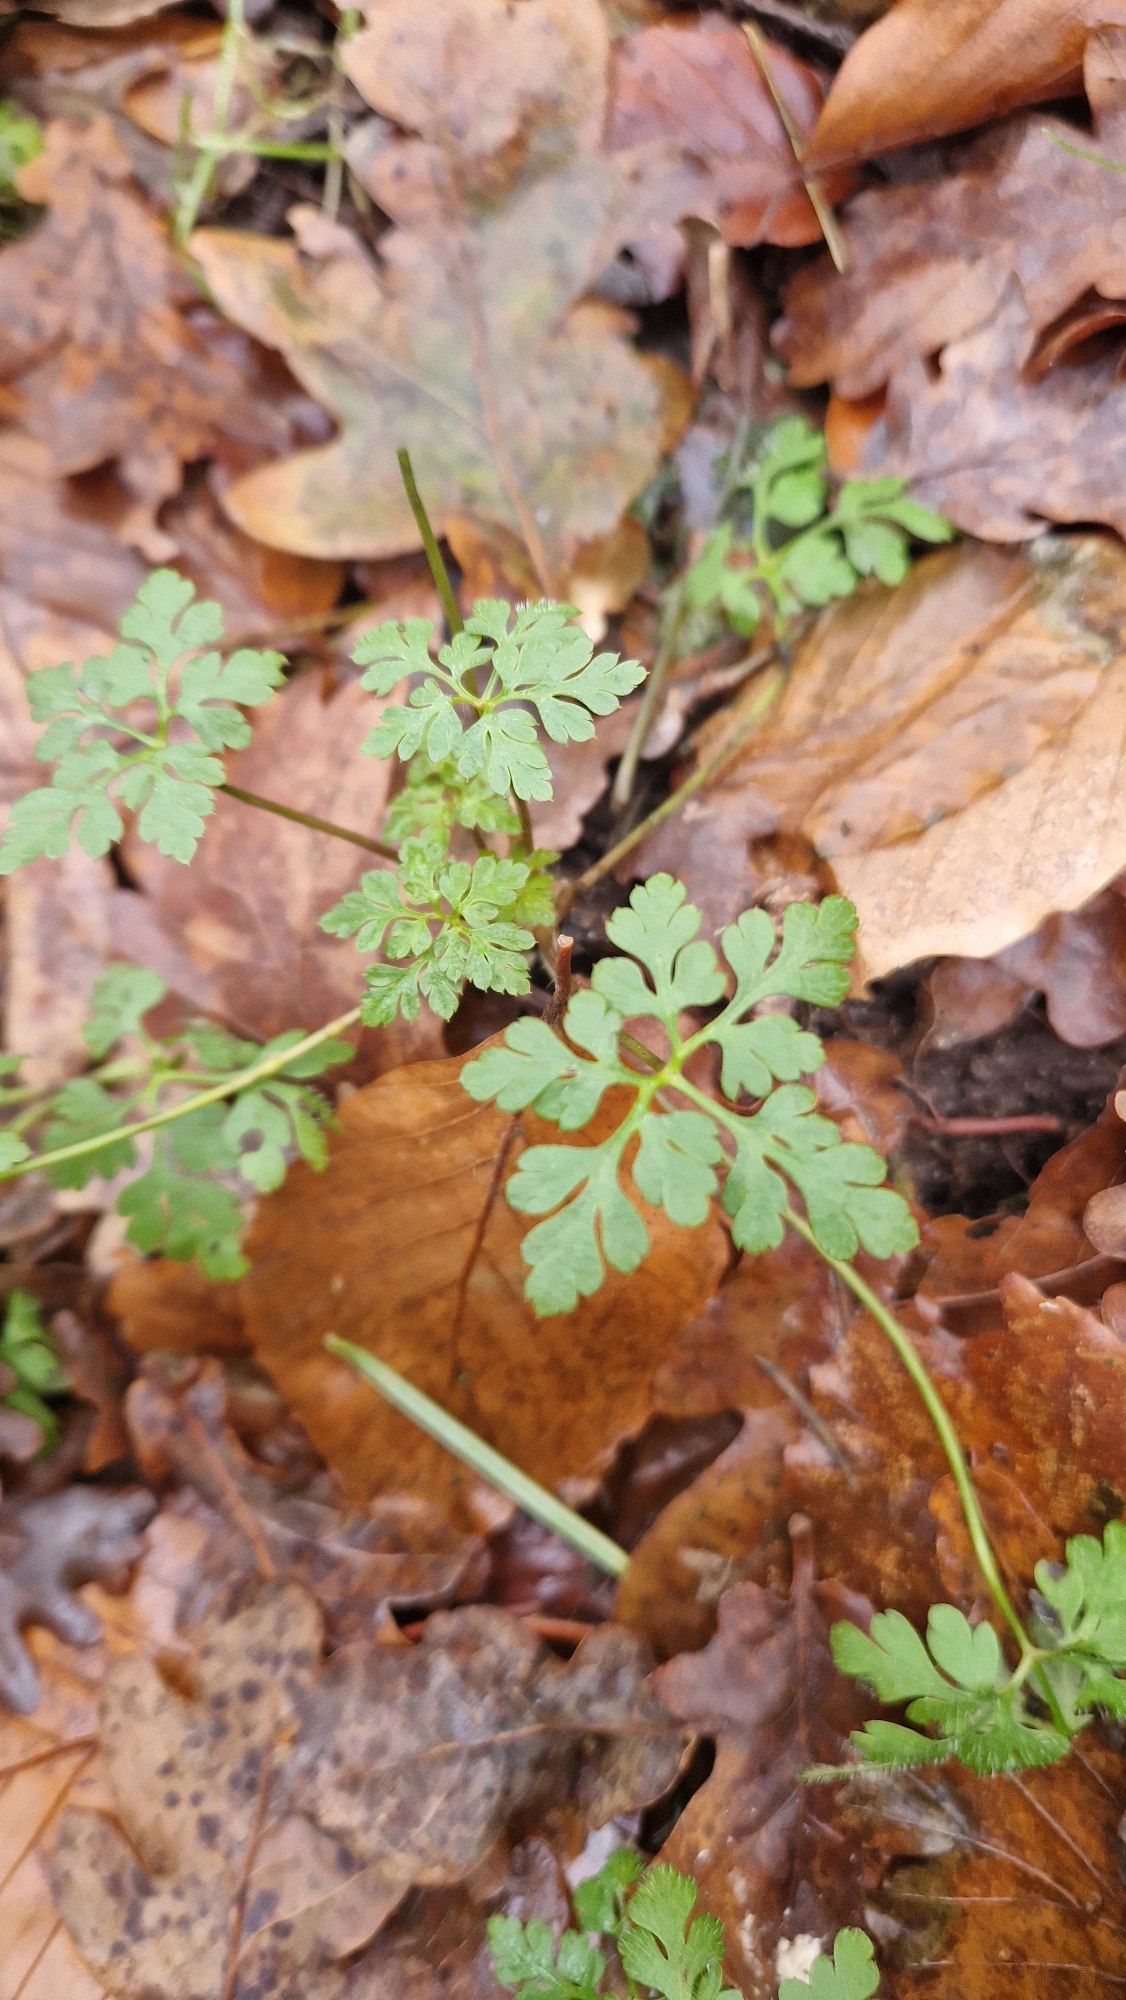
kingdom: Plantae
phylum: Tracheophyta
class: Magnoliopsida
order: Geraniales
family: Geraniaceae
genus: Geranium
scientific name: Geranium robertianum
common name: Stinkende storkenæb
